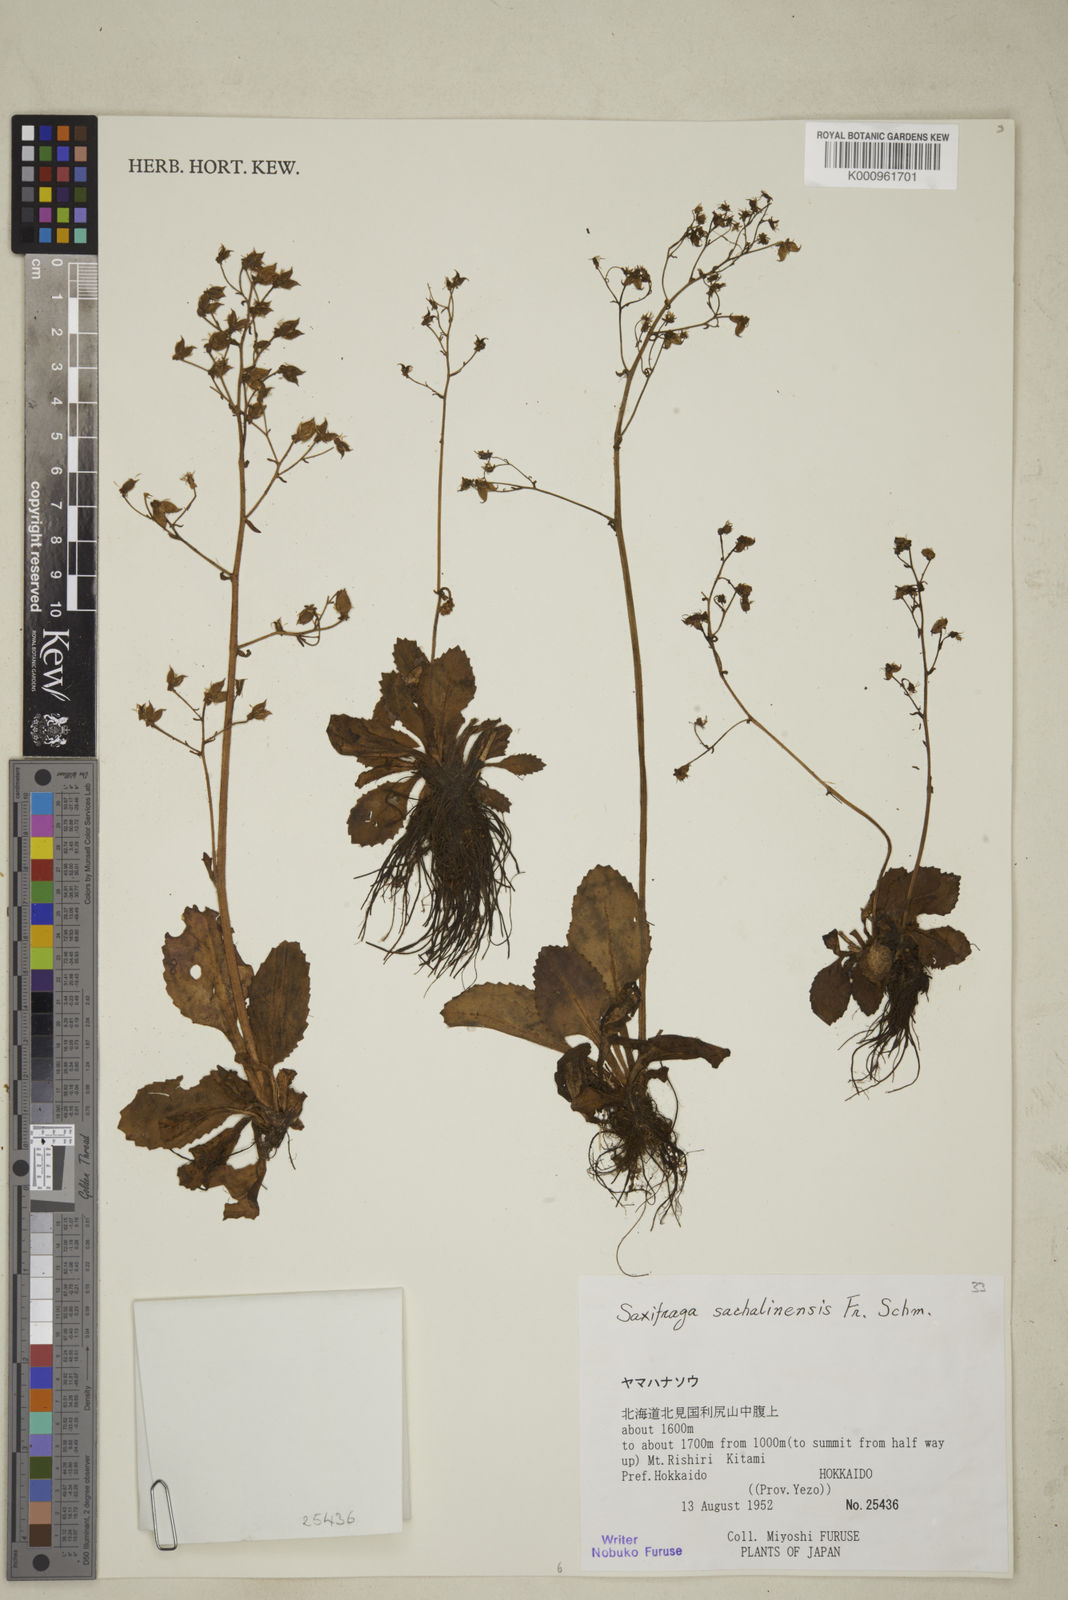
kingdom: Plantae
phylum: Tracheophyta
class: Magnoliopsida
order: Saxifragales
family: Saxifragaceae
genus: Micranthes
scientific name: Micranthes sachalinensis
